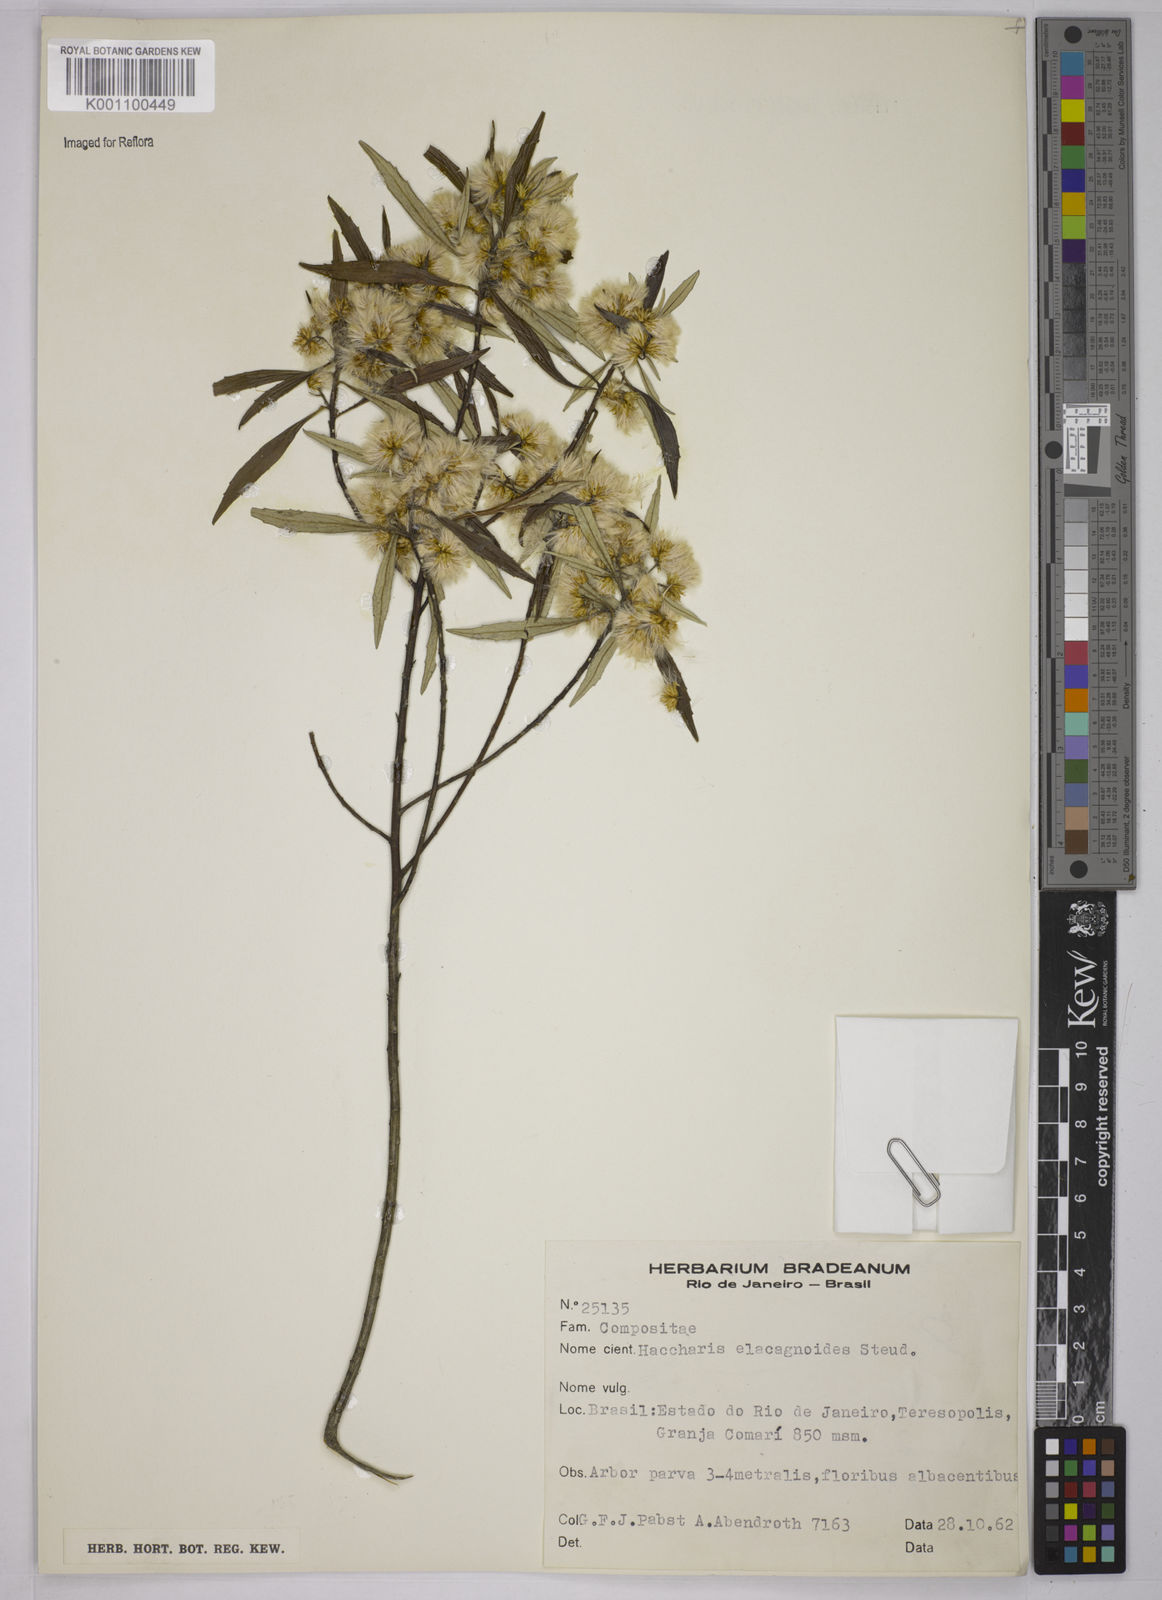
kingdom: Plantae
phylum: Tracheophyta
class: Magnoliopsida
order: Asterales
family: Asteraceae
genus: Baccharis
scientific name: Baccharis
